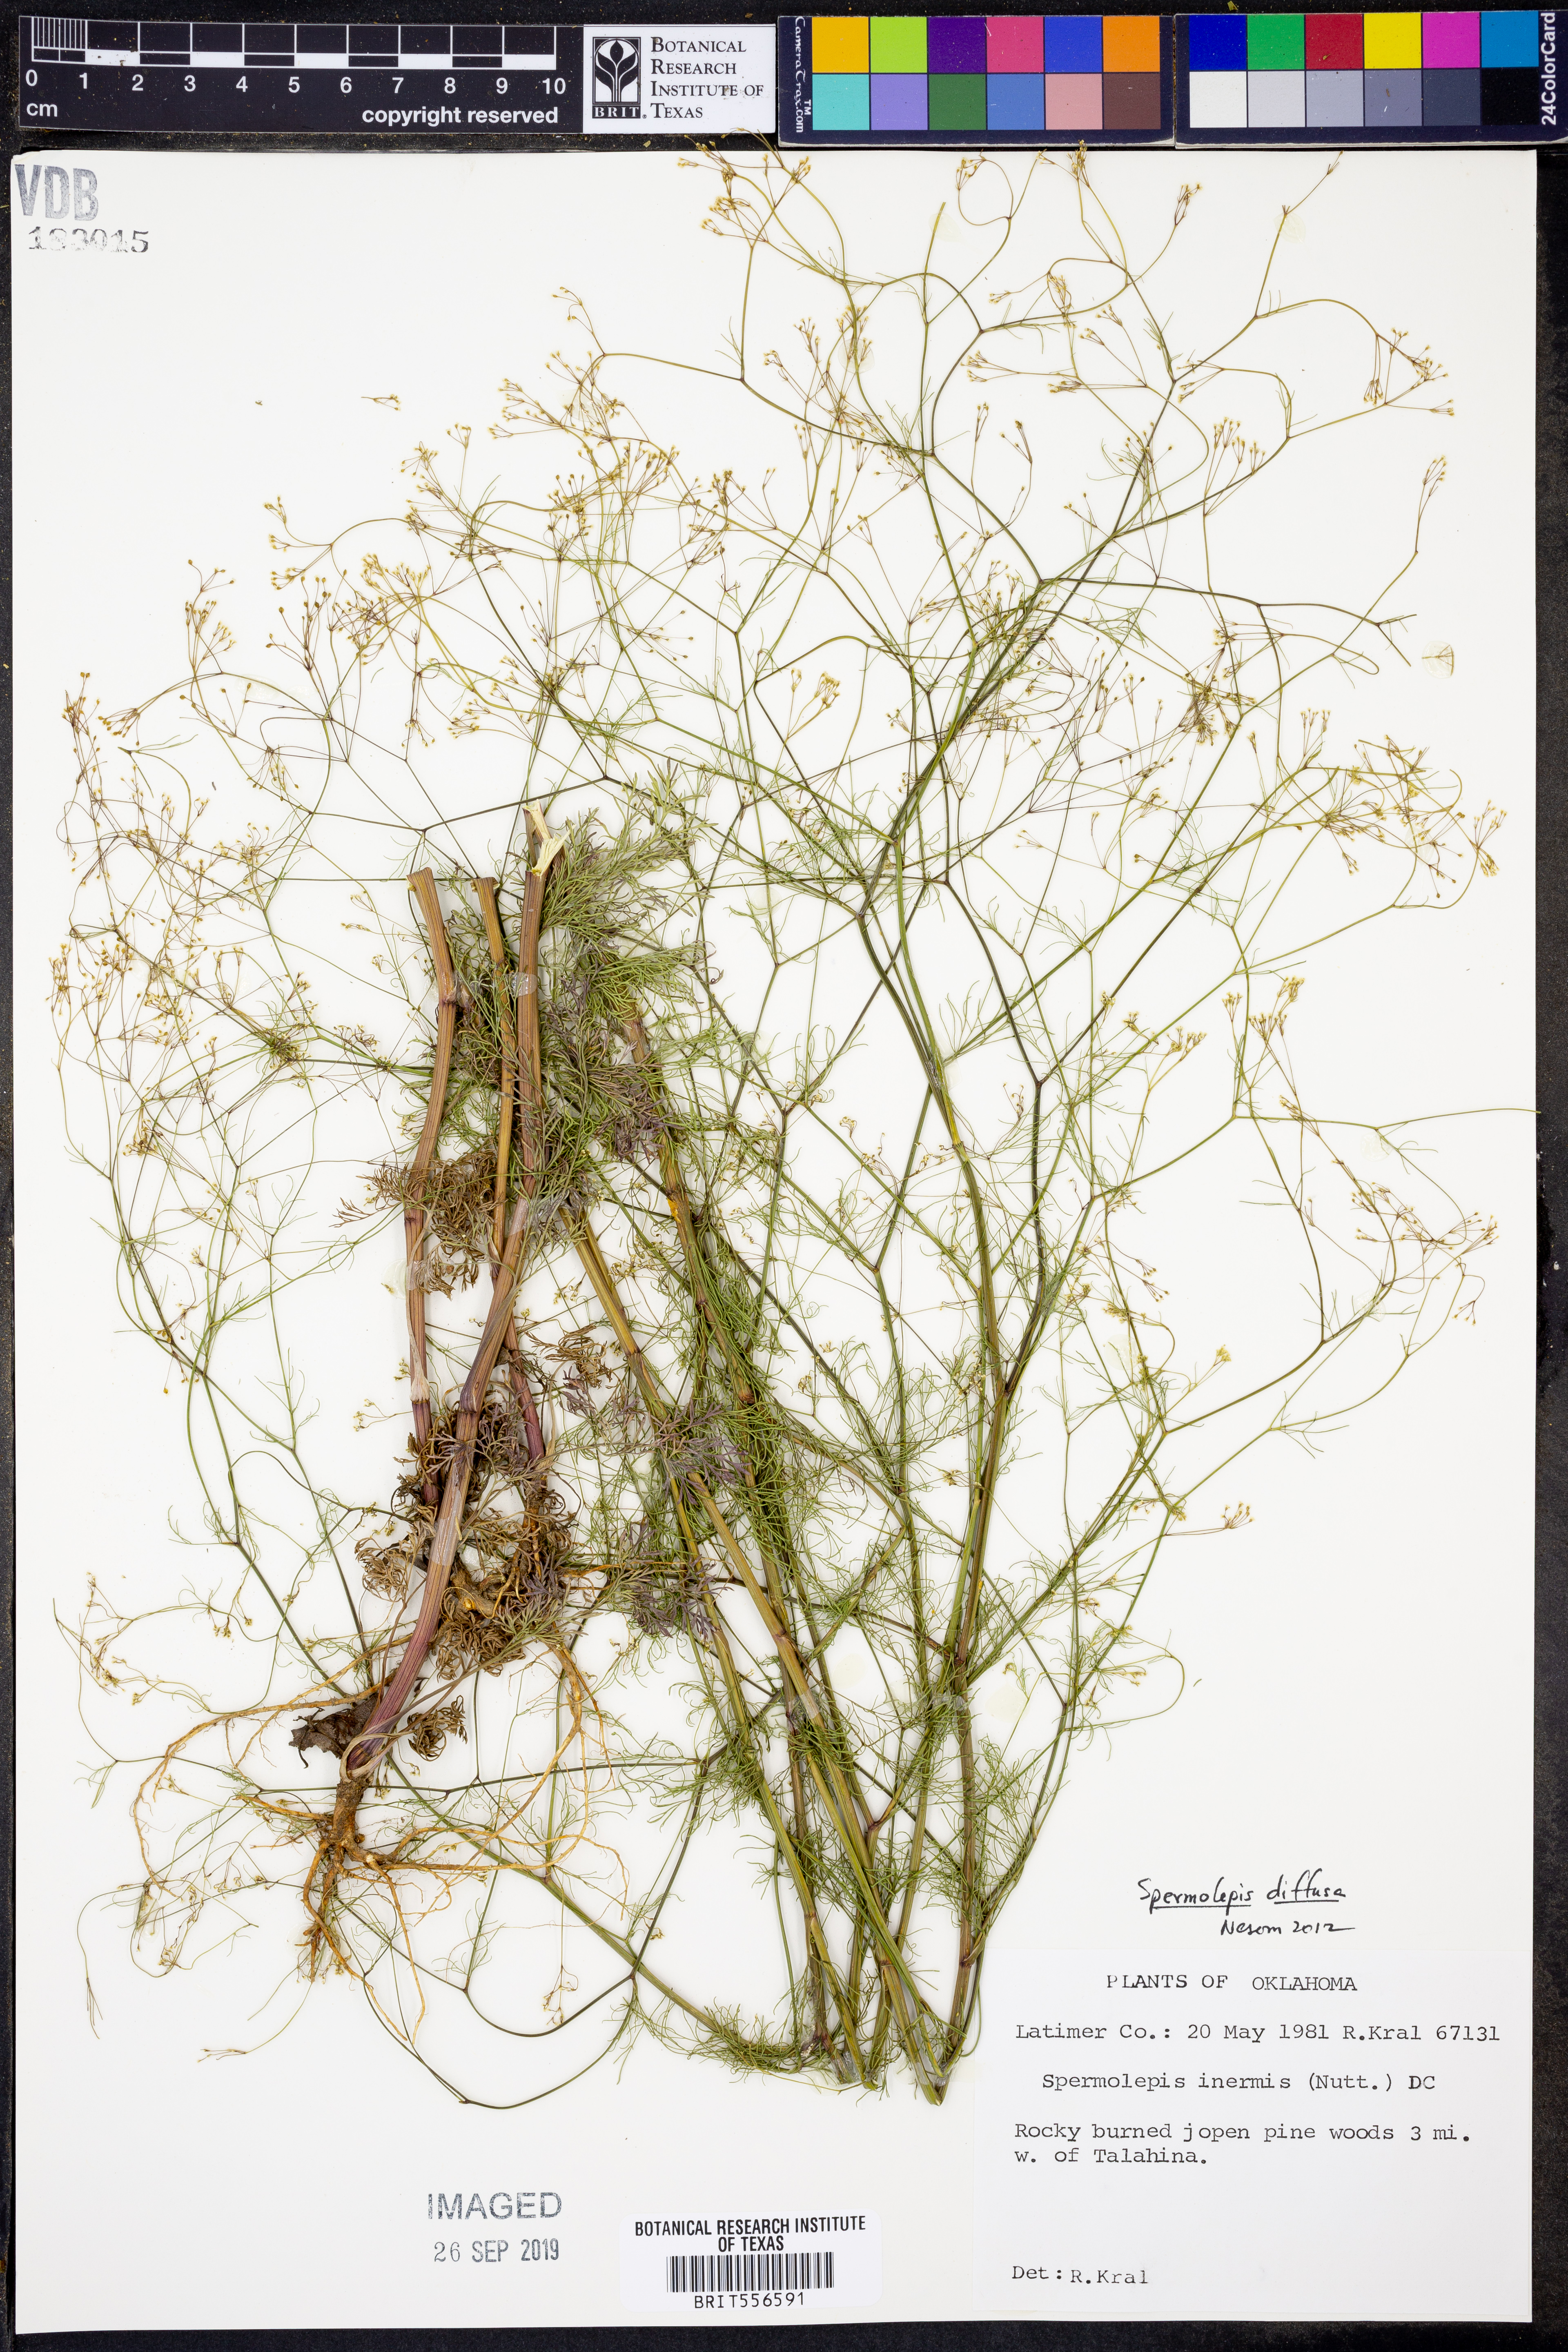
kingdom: Plantae
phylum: Tracheophyta
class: Magnoliopsida
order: Apiales
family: Apiaceae
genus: Spermolepis
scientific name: Spermolepis diffusa
